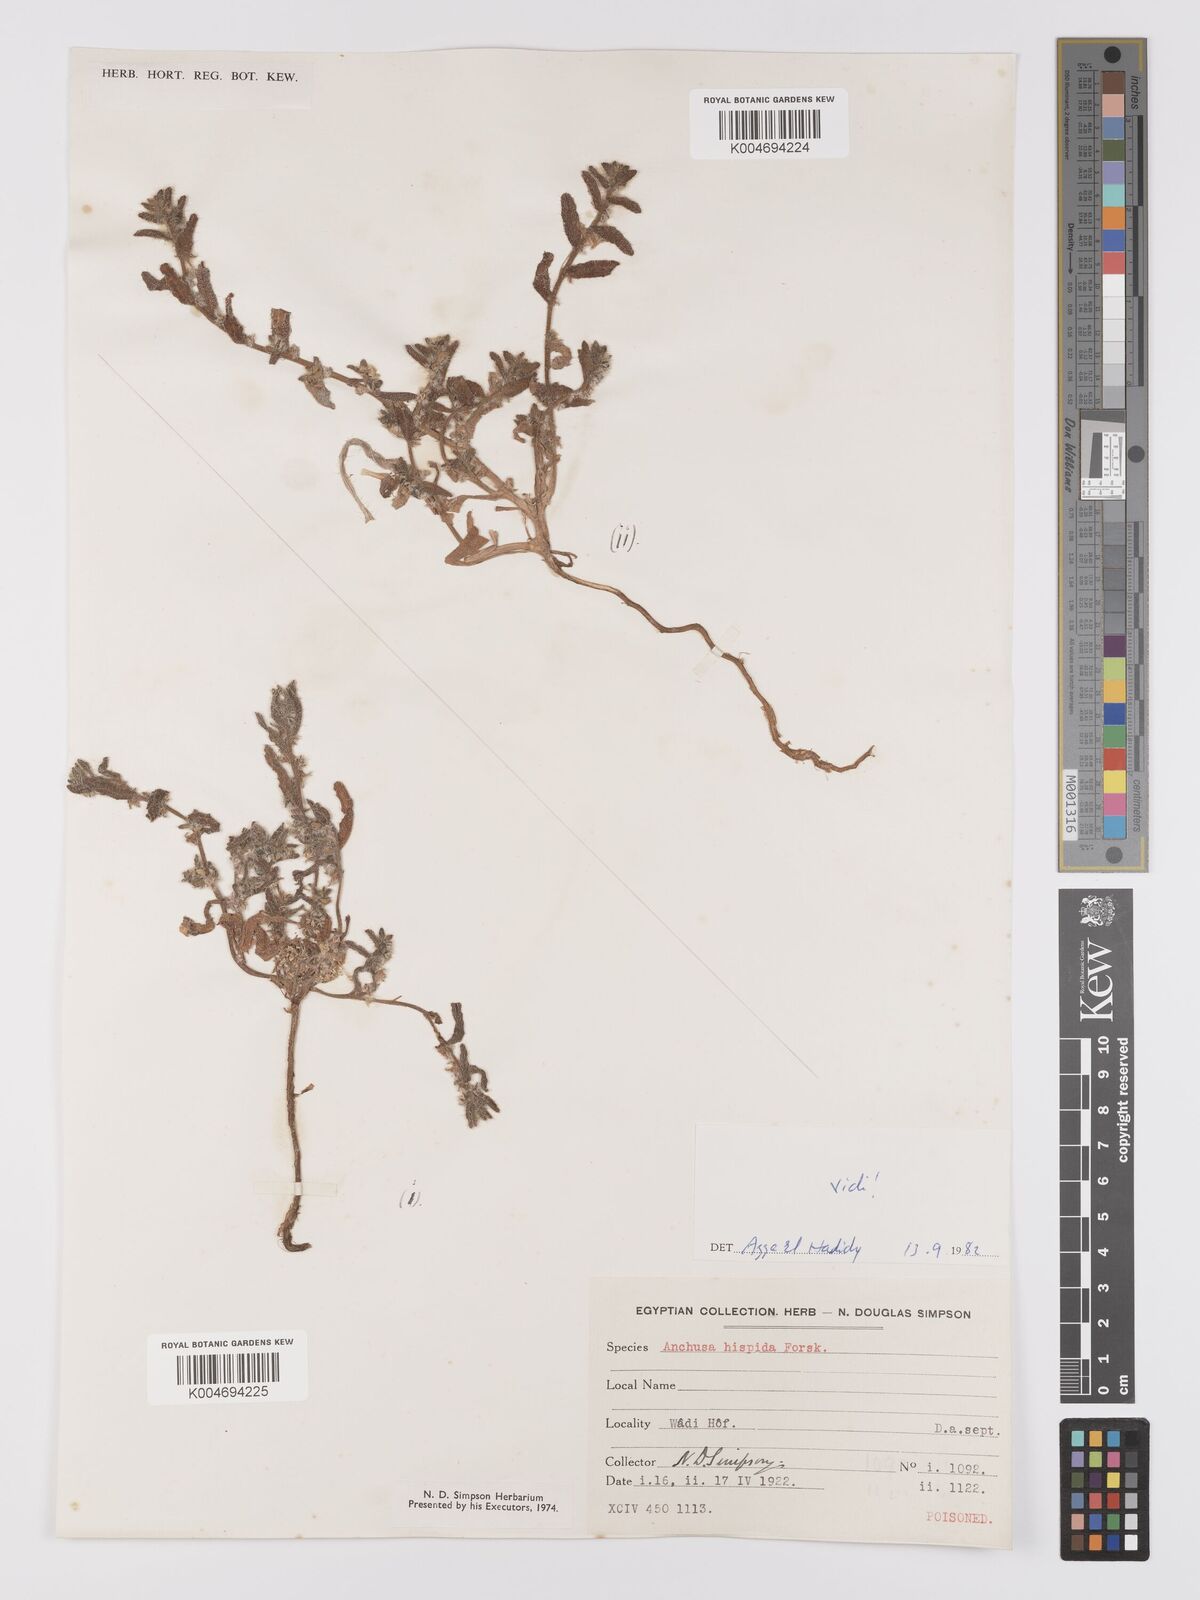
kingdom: Plantae
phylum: Tracheophyta
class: Magnoliopsida
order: Boraginales
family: Boraginaceae
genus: Gastrocotyle
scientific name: Gastrocotyle hispida
